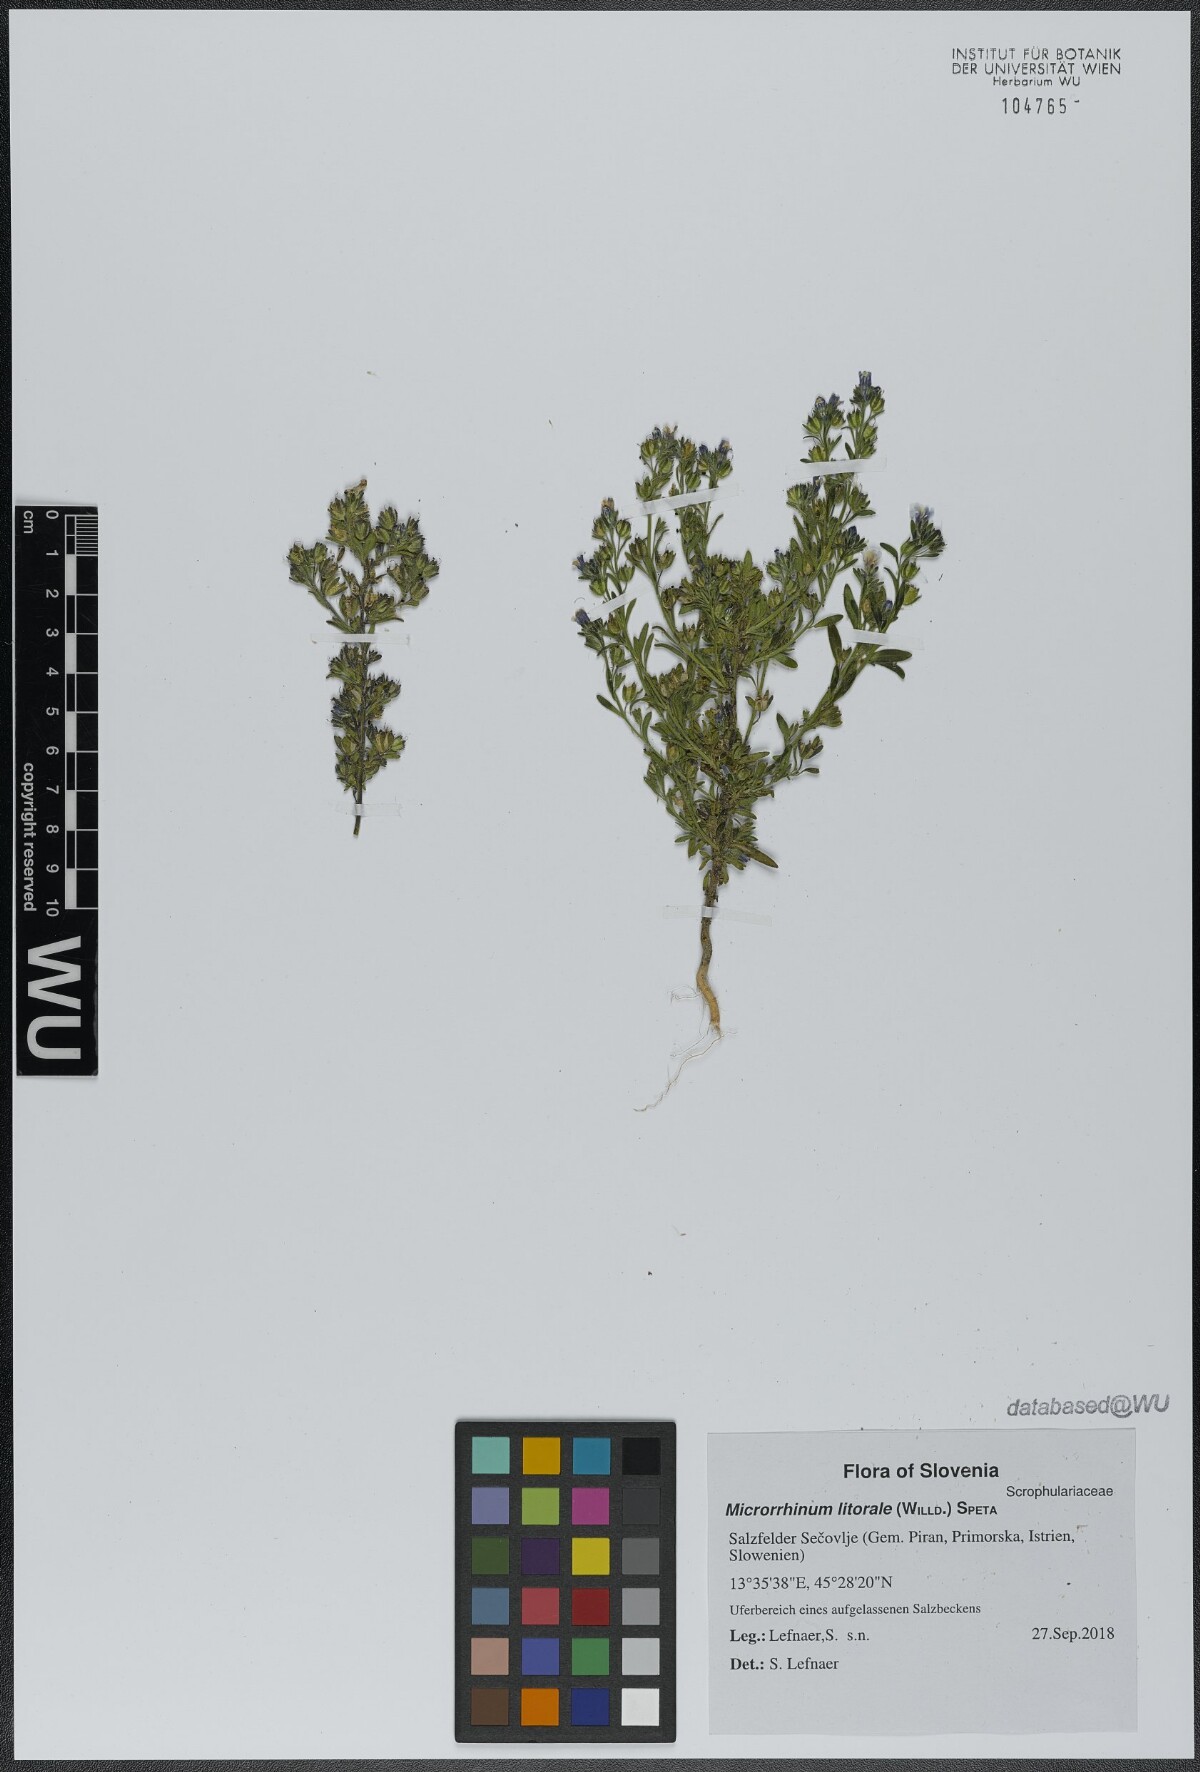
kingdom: Plantae
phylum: Tracheophyta
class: Magnoliopsida
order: Lamiales
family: Plantaginaceae
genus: Chaenorhinum
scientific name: Chaenorhinum litorale
